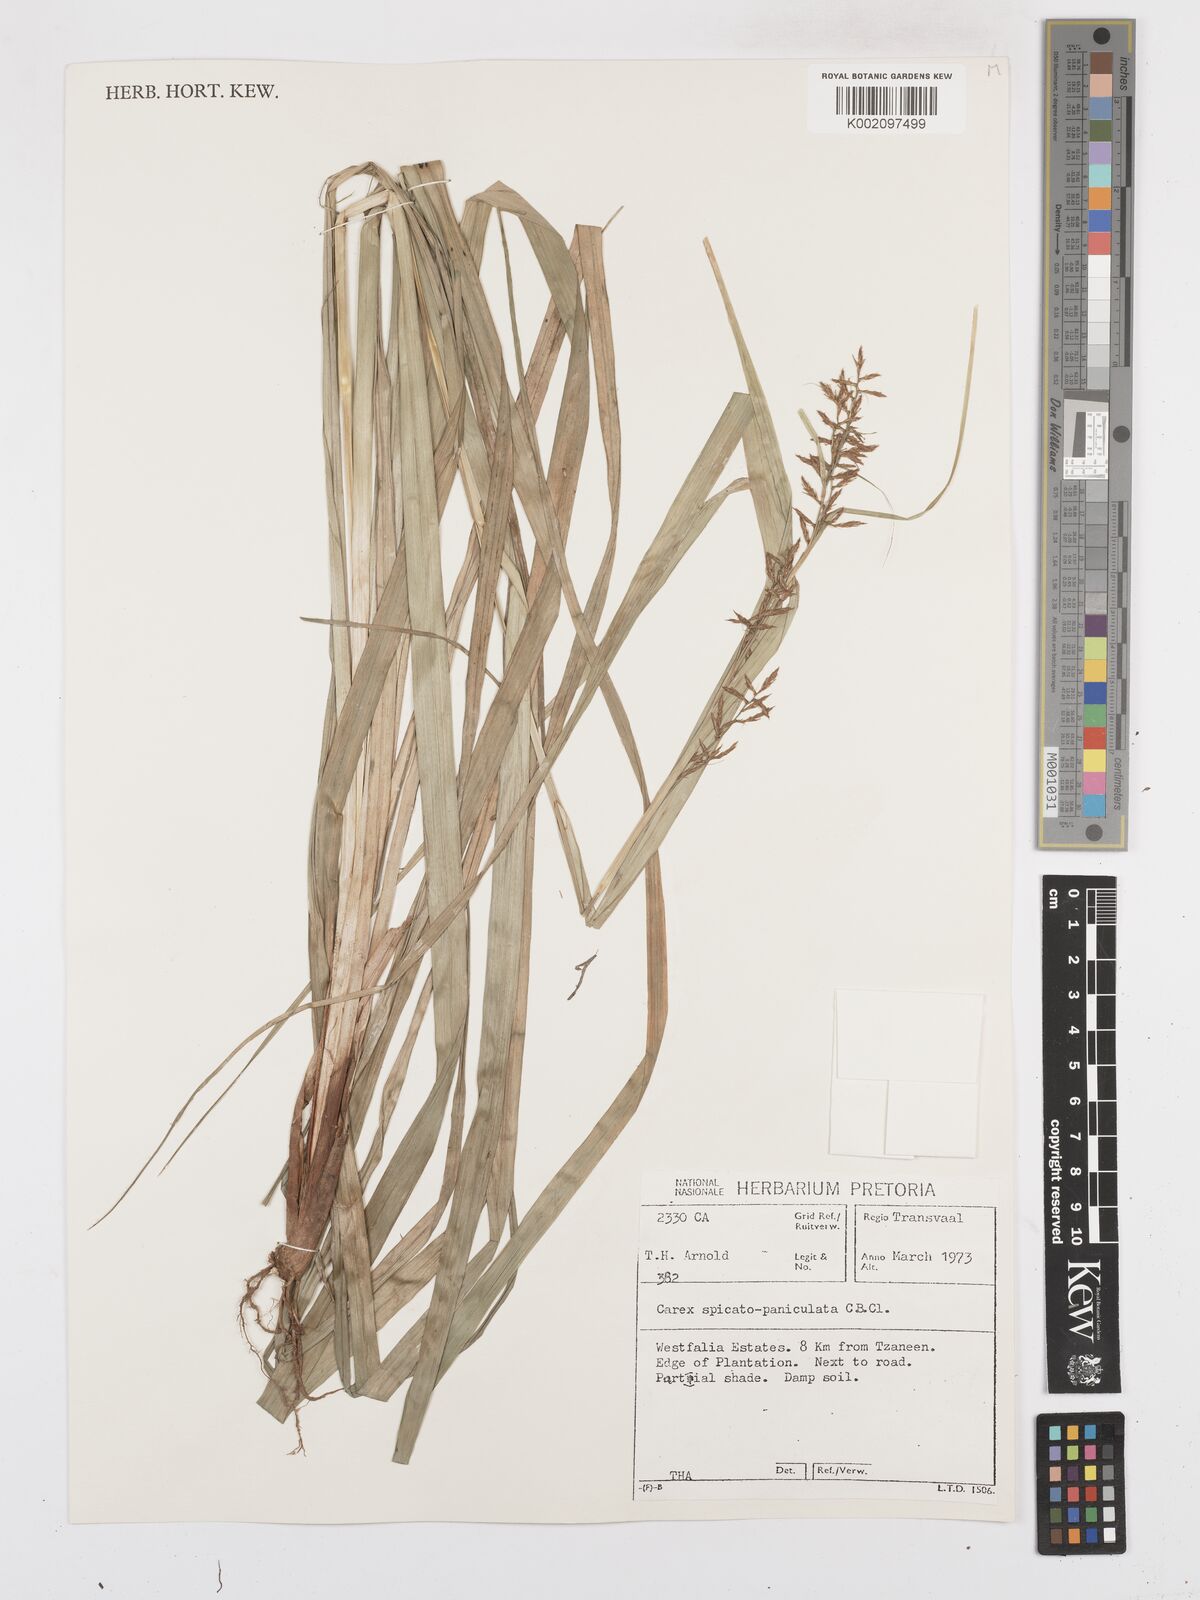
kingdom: Plantae
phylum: Tracheophyta
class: Liliopsida
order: Poales
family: Cyperaceae
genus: Carex
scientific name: Carex spicatopaniculata
